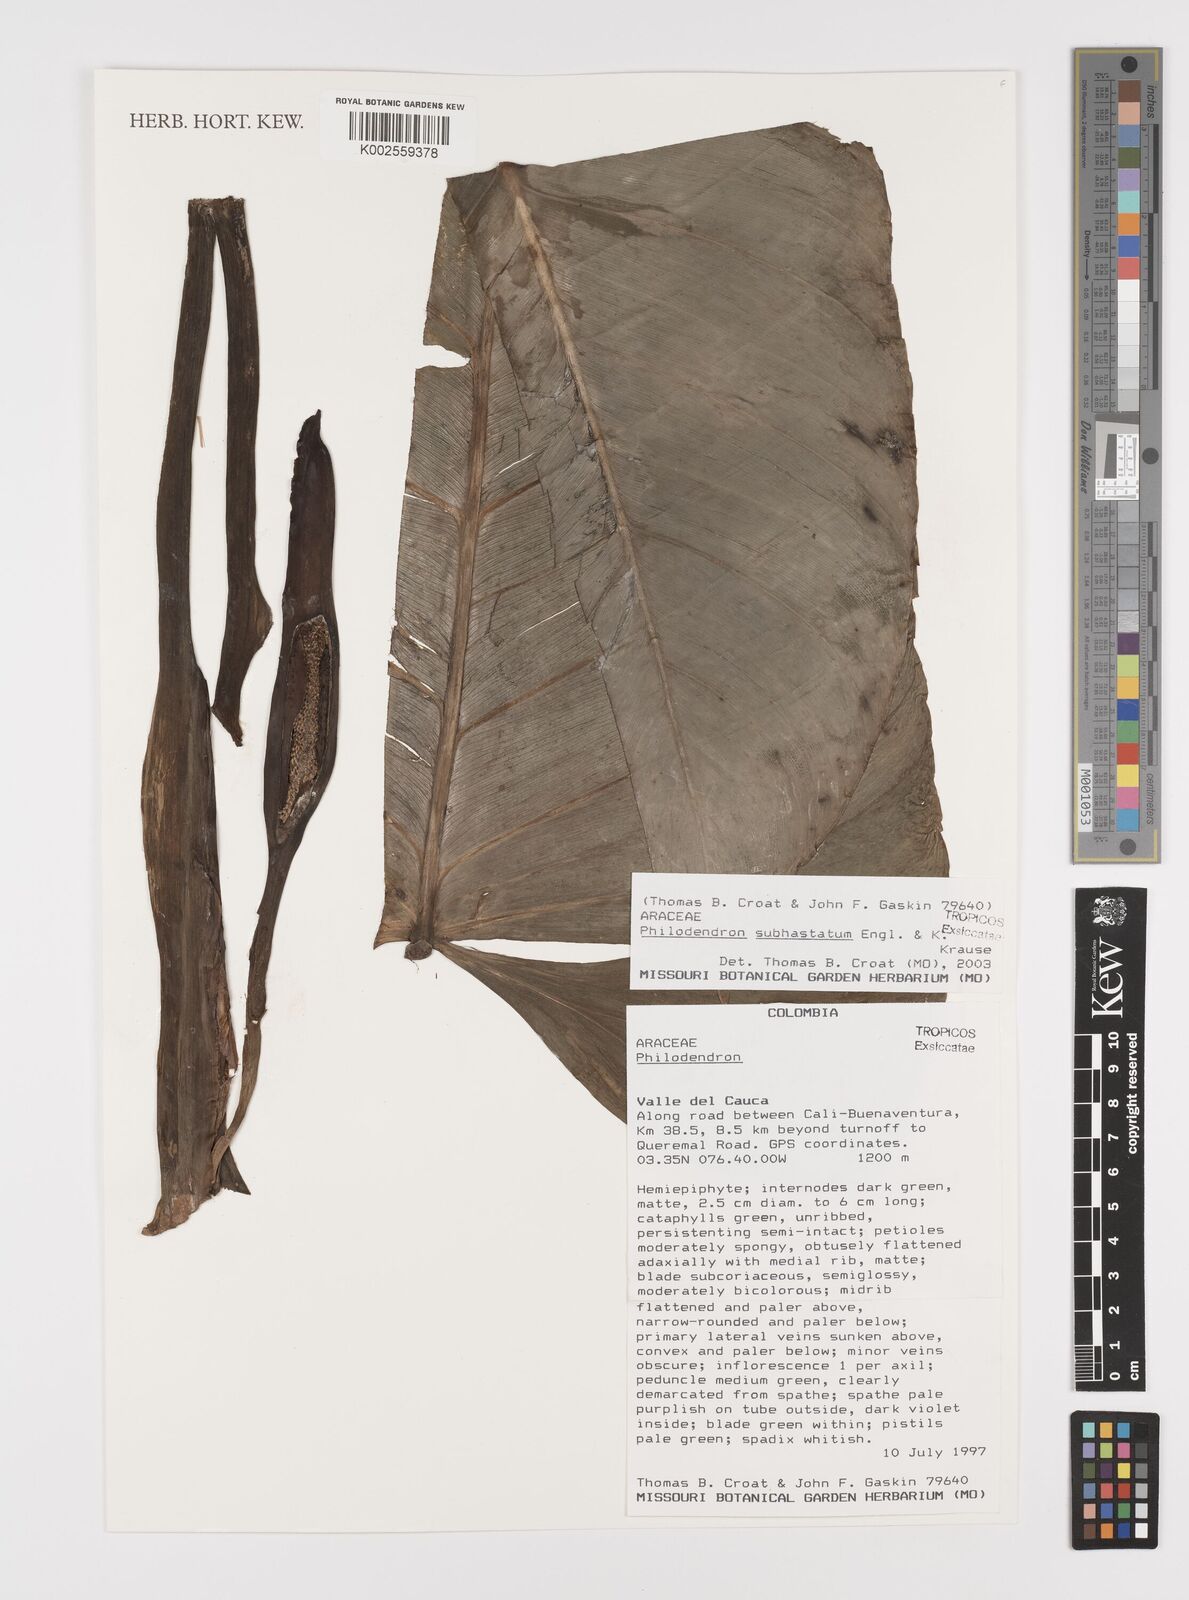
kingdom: Plantae
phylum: Tracheophyta
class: Liliopsida
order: Alismatales
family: Araceae
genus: Philodendron
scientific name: Philodendron subhastatum
